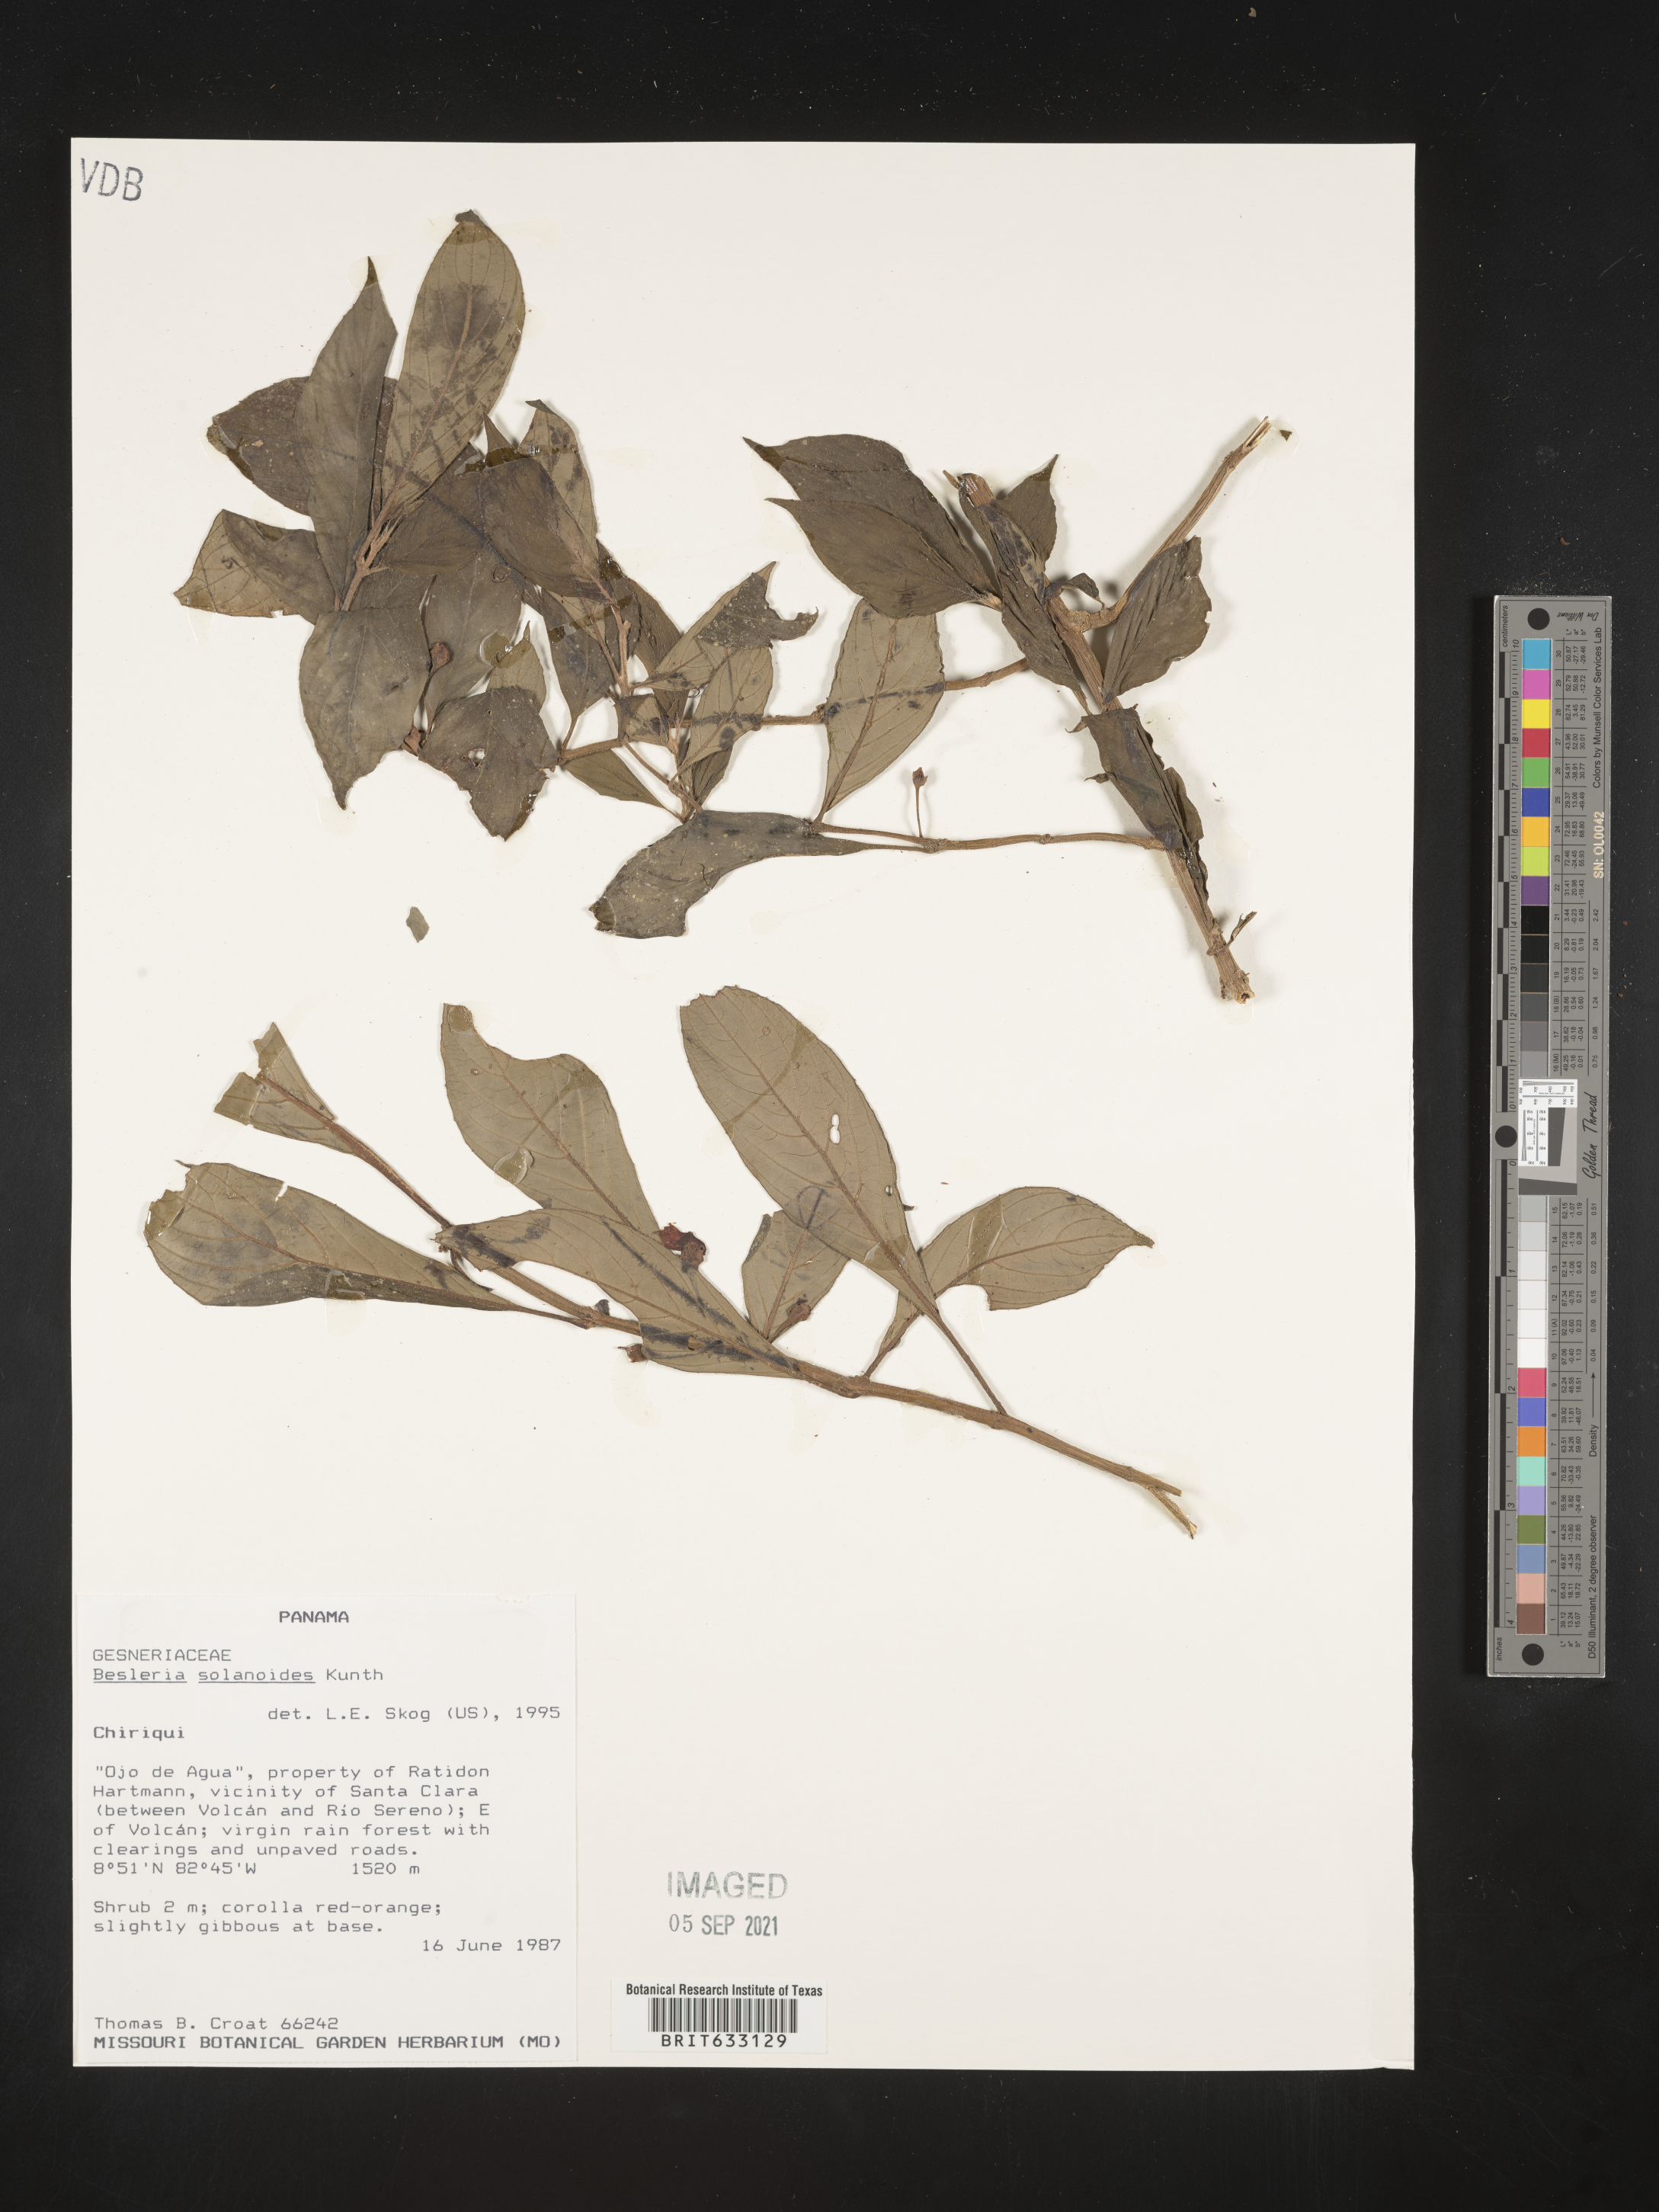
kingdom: Plantae
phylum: Tracheophyta
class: Magnoliopsida
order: Lamiales
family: Gesneriaceae
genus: Besleria
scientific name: Besleria
